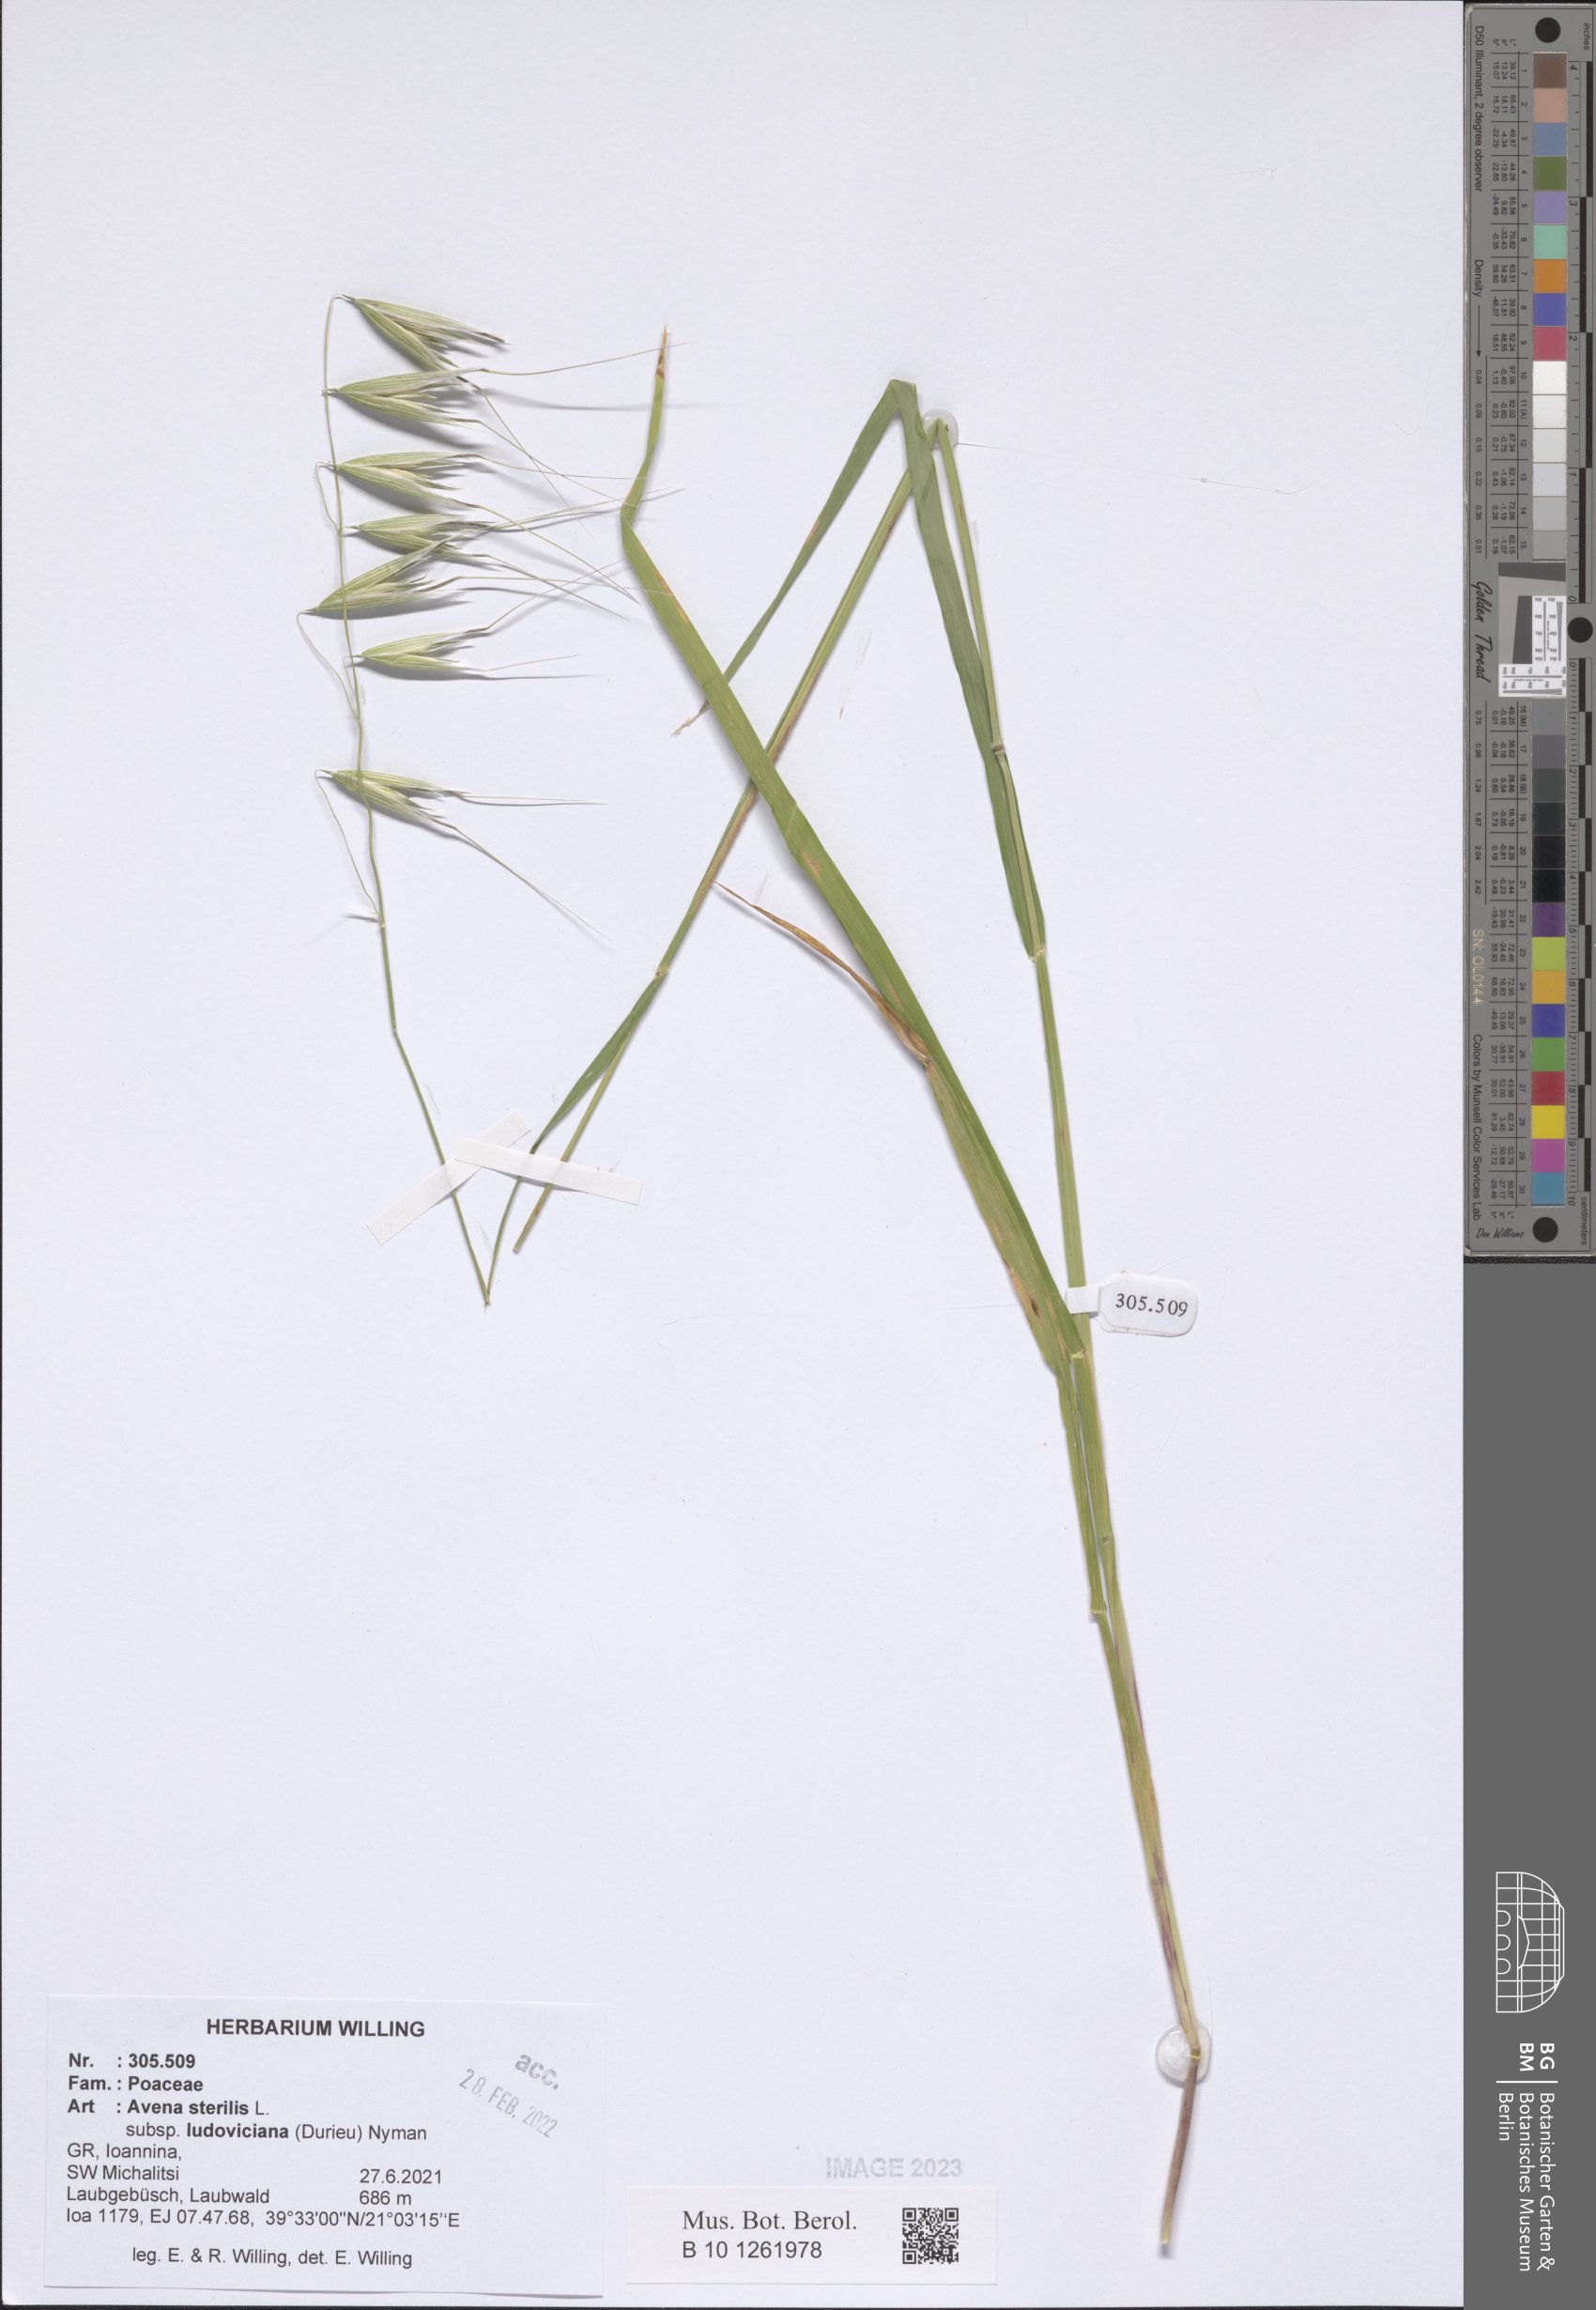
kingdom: Plantae
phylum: Tracheophyta
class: Liliopsida
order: Poales
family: Poaceae
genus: Avena
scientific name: Avena sterilis
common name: Animated oat
